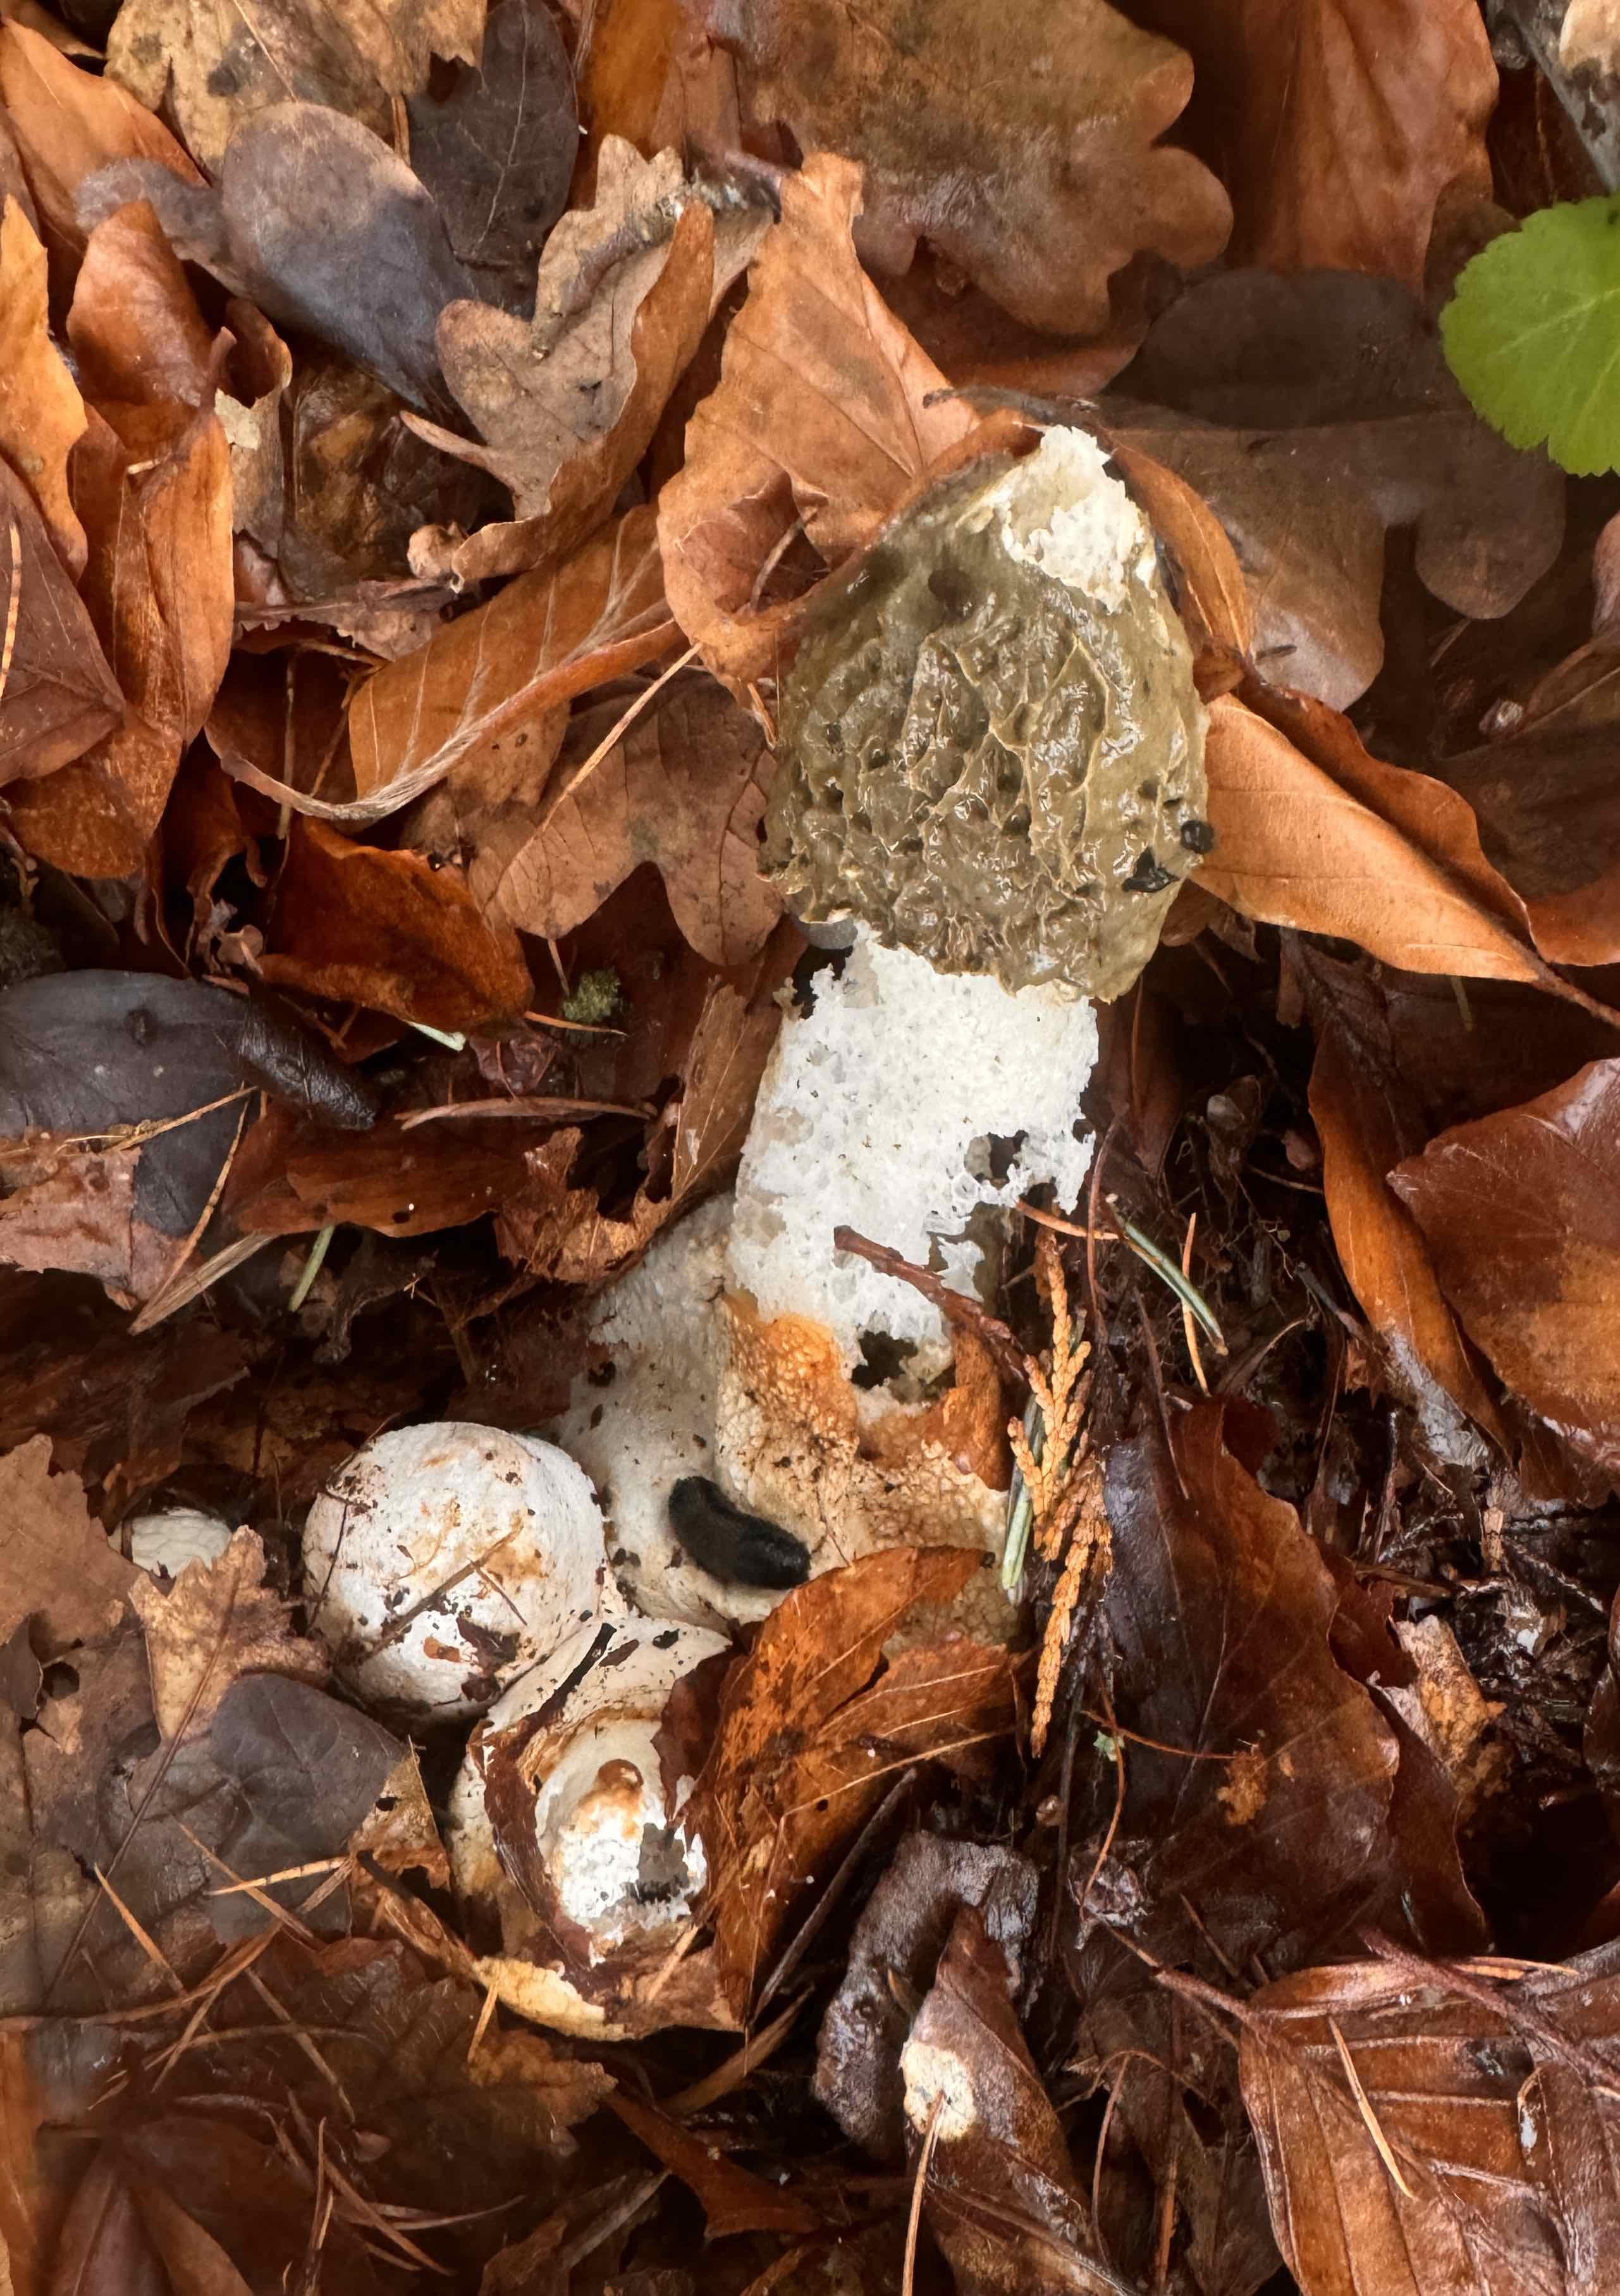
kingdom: Fungi
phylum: Basidiomycota
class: Agaricomycetes
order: Phallales
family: Phallaceae
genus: Phallus
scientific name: Phallus impudicus
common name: almindelig stinksvamp
